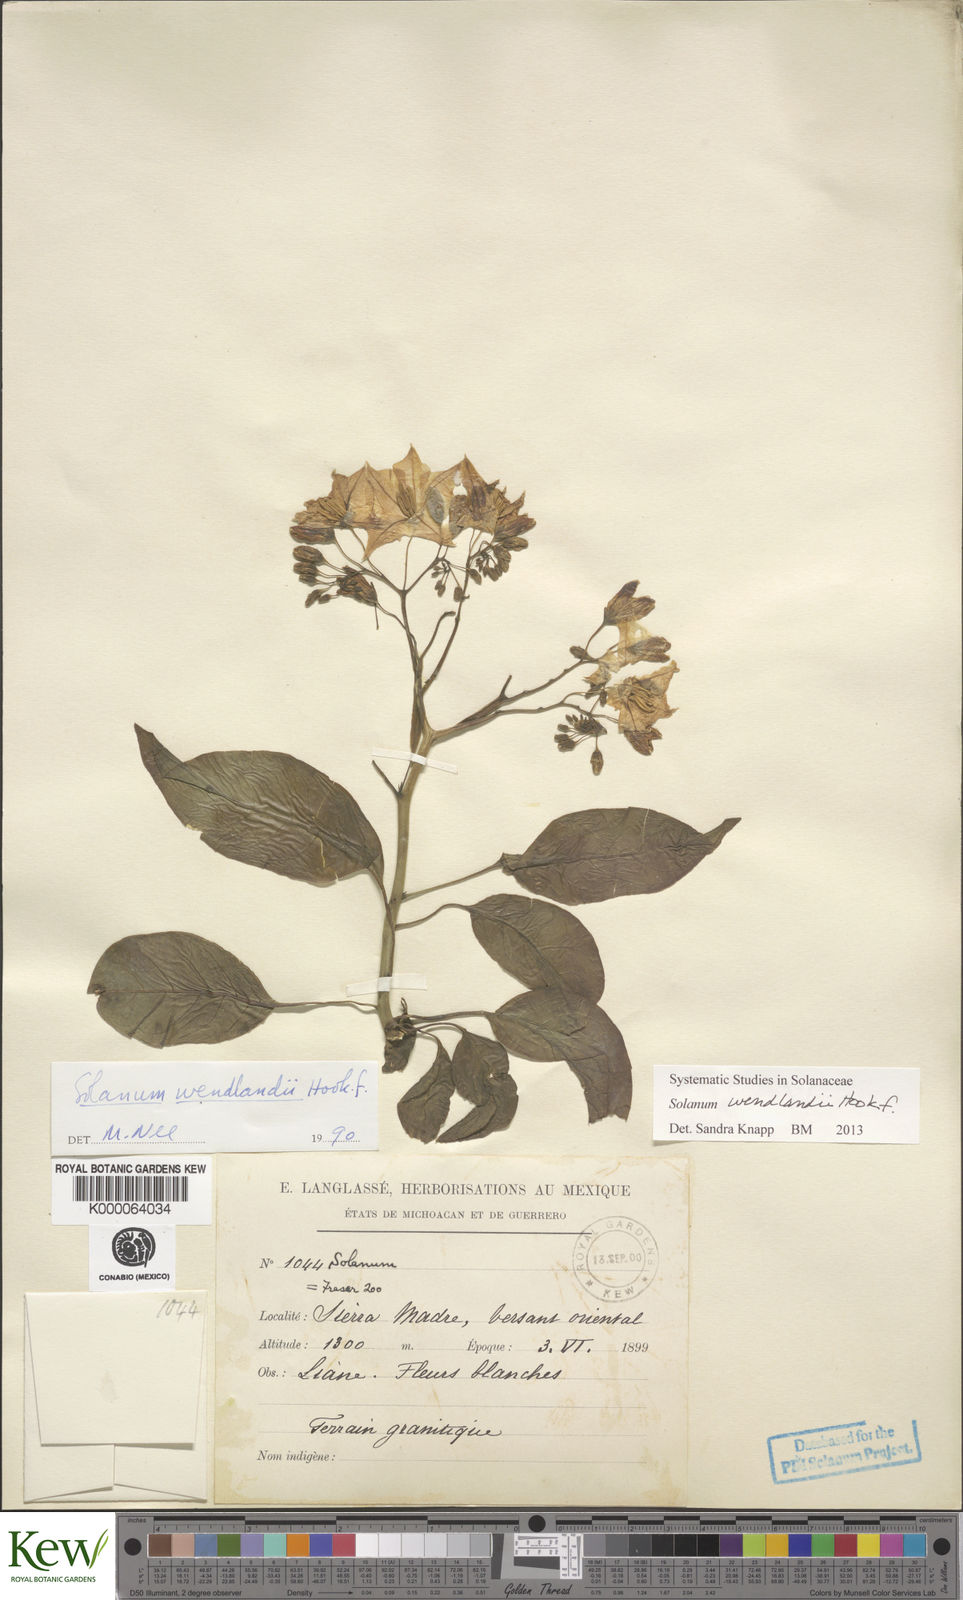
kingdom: Plantae
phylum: Tracheophyta
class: Magnoliopsida
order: Solanales
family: Solanaceae
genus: Solanum
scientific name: Solanum wendlandii
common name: Costa rican nightshade
